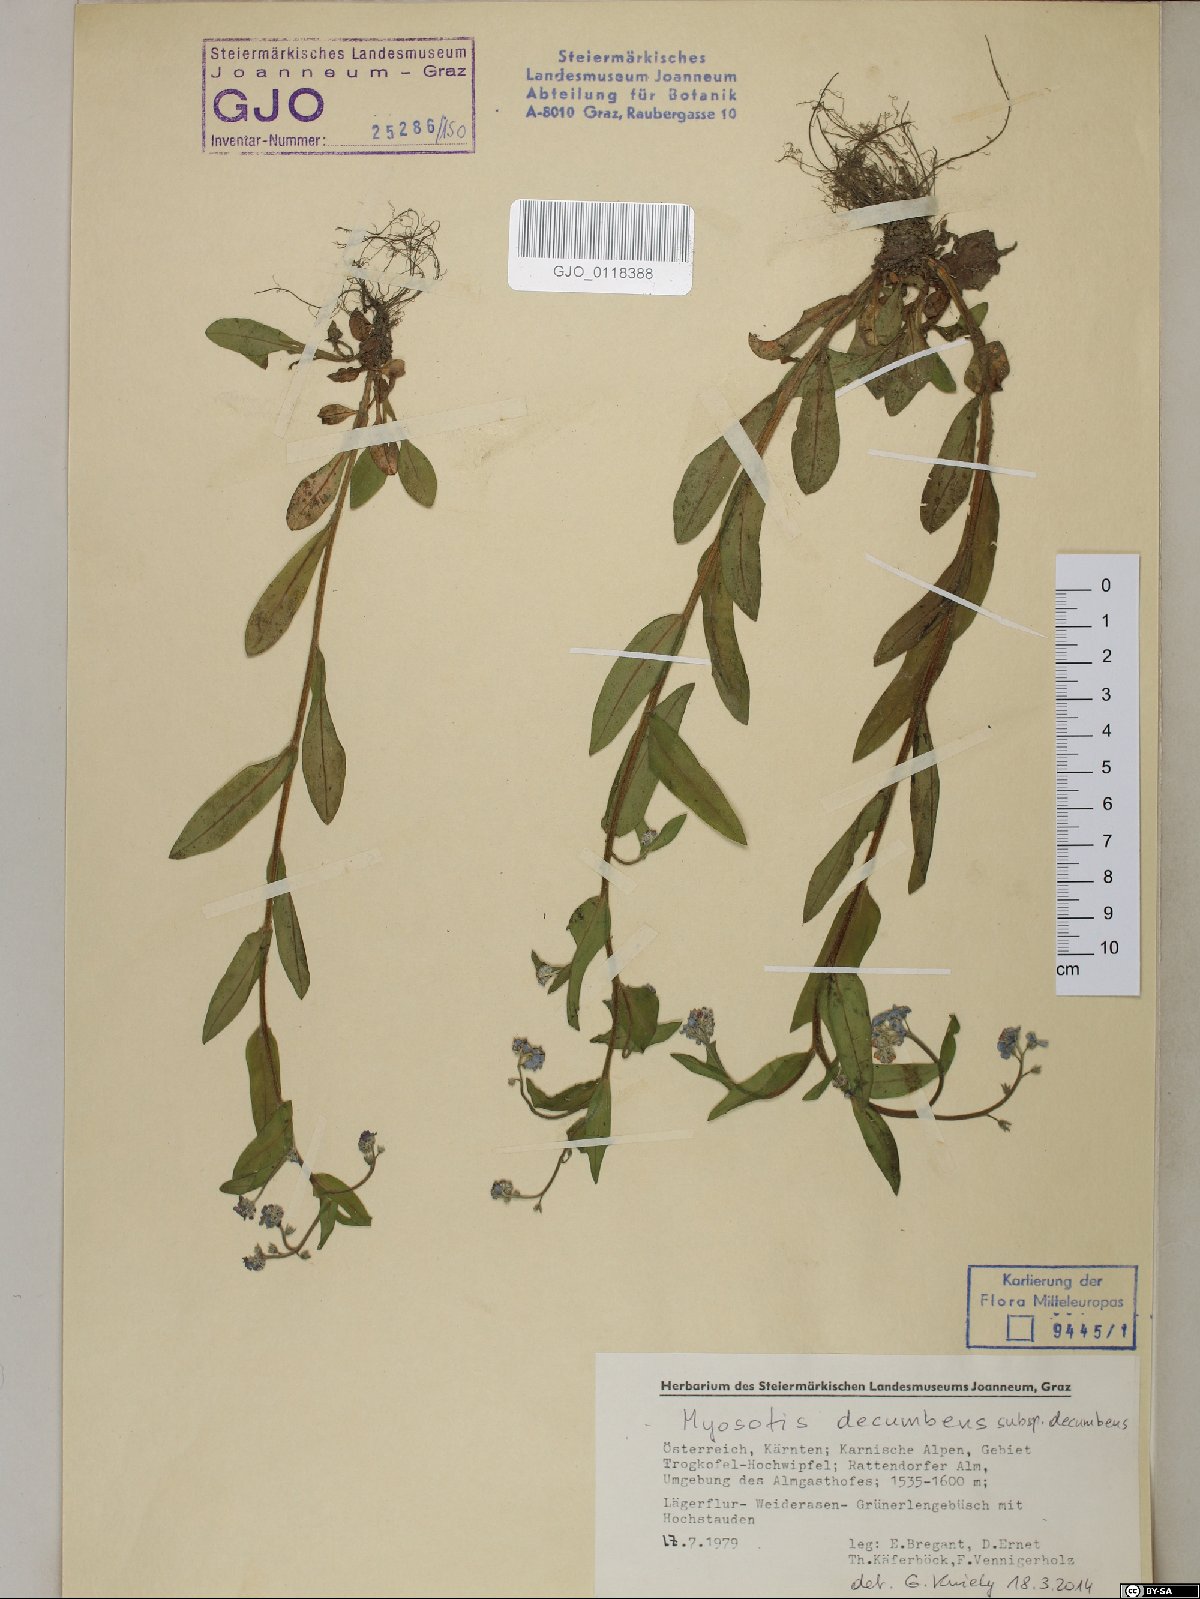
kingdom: Plantae
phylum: Tracheophyta
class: Magnoliopsida
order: Boraginales
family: Boraginaceae
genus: Myosotis
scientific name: Myosotis decumbens
